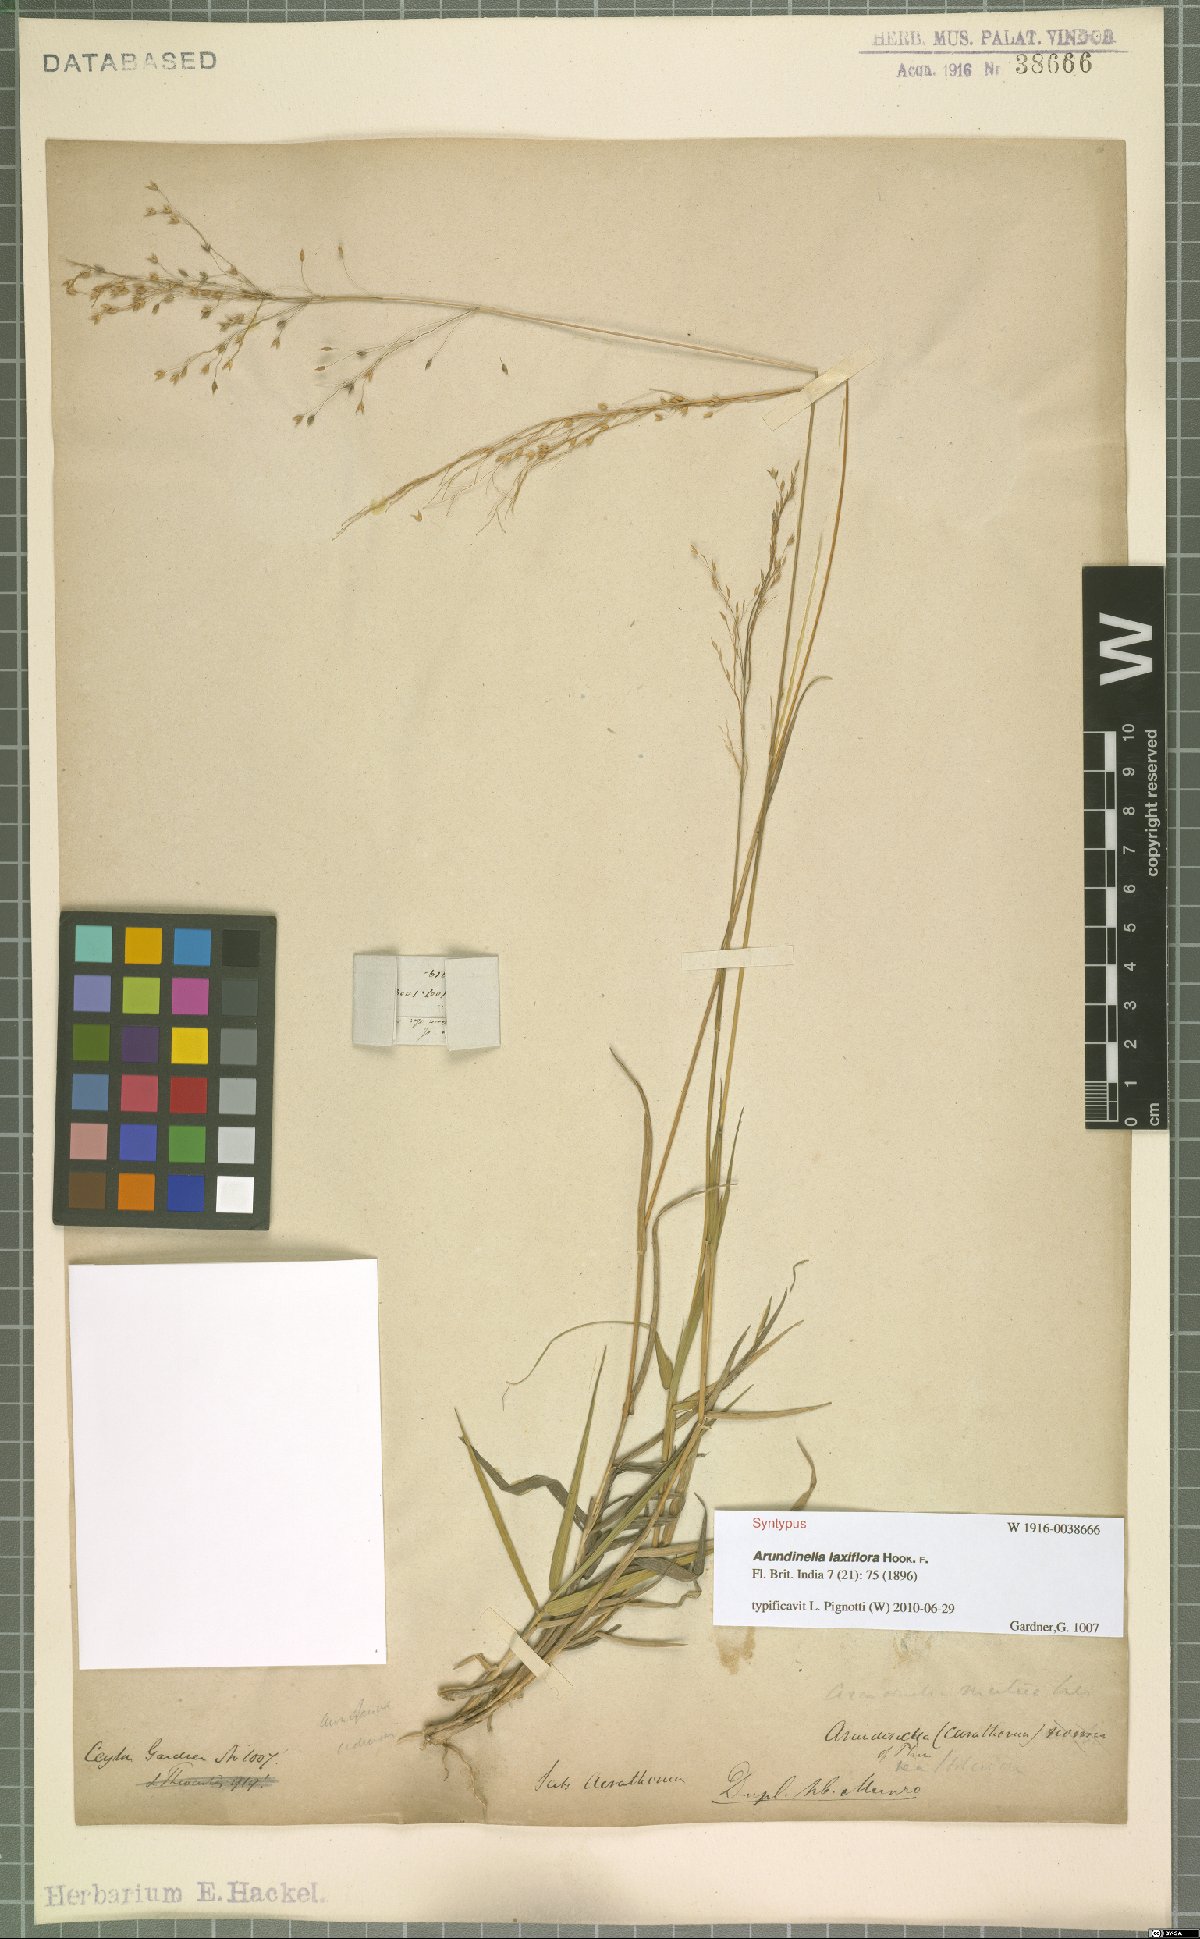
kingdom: Plantae
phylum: Tracheophyta
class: Liliopsida
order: Poales
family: Poaceae
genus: Arundinella
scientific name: Arundinella laxiflora
